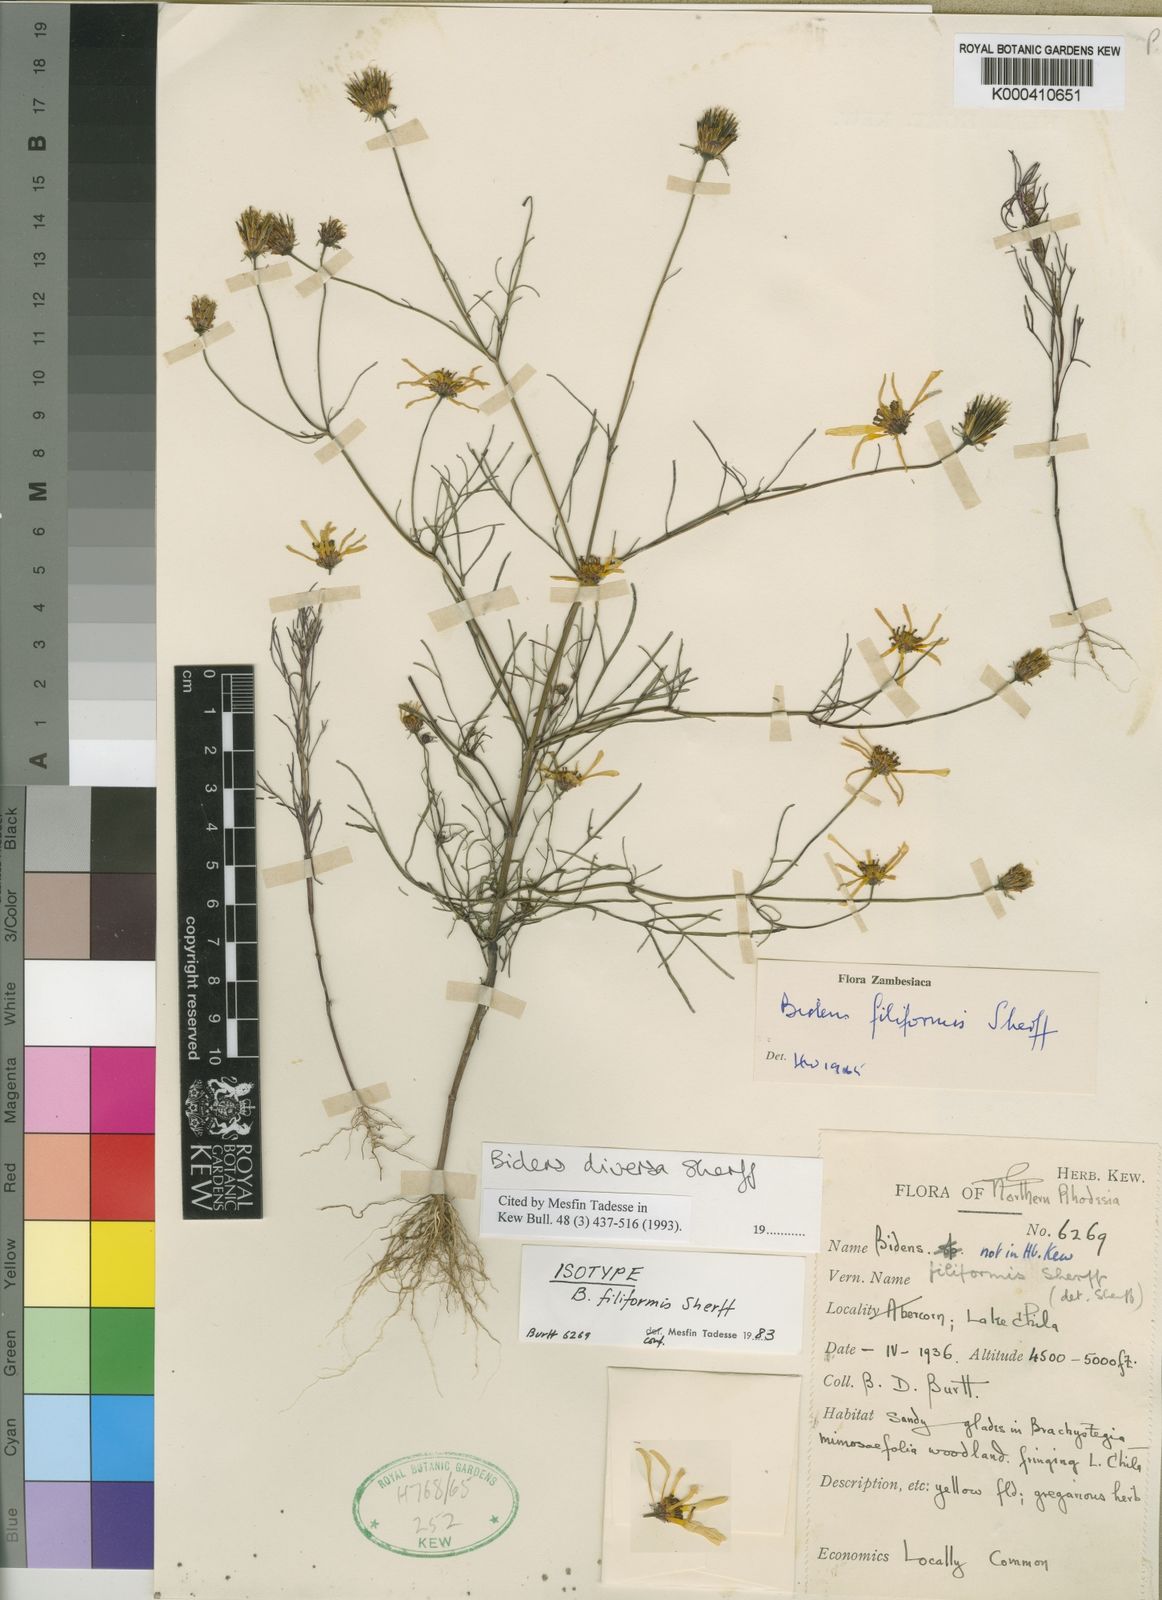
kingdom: Plantae
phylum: Tracheophyta
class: Magnoliopsida
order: Asterales
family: Asteraceae
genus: Bidens
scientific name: Bidens diversa
